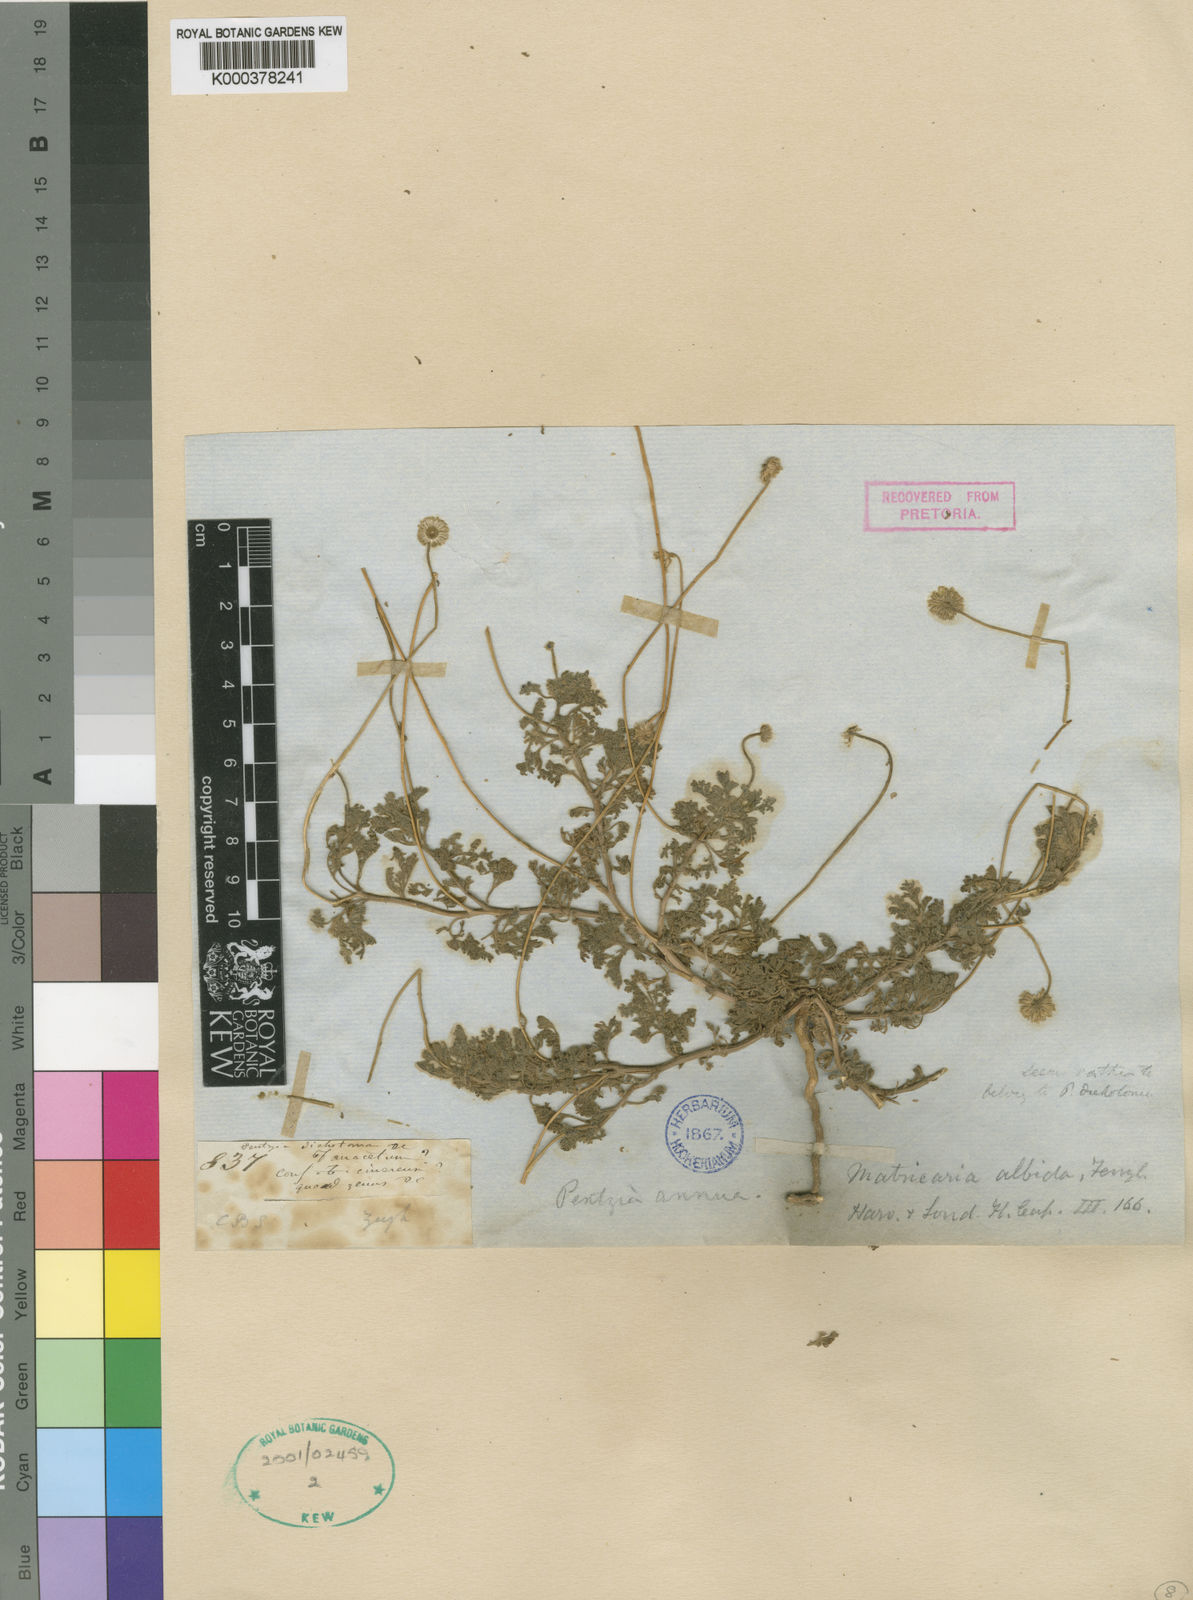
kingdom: Plantae
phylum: Tracheophyta
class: Magnoliopsida
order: Asterales
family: Asteraceae
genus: Foveolina
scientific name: Foveolina
